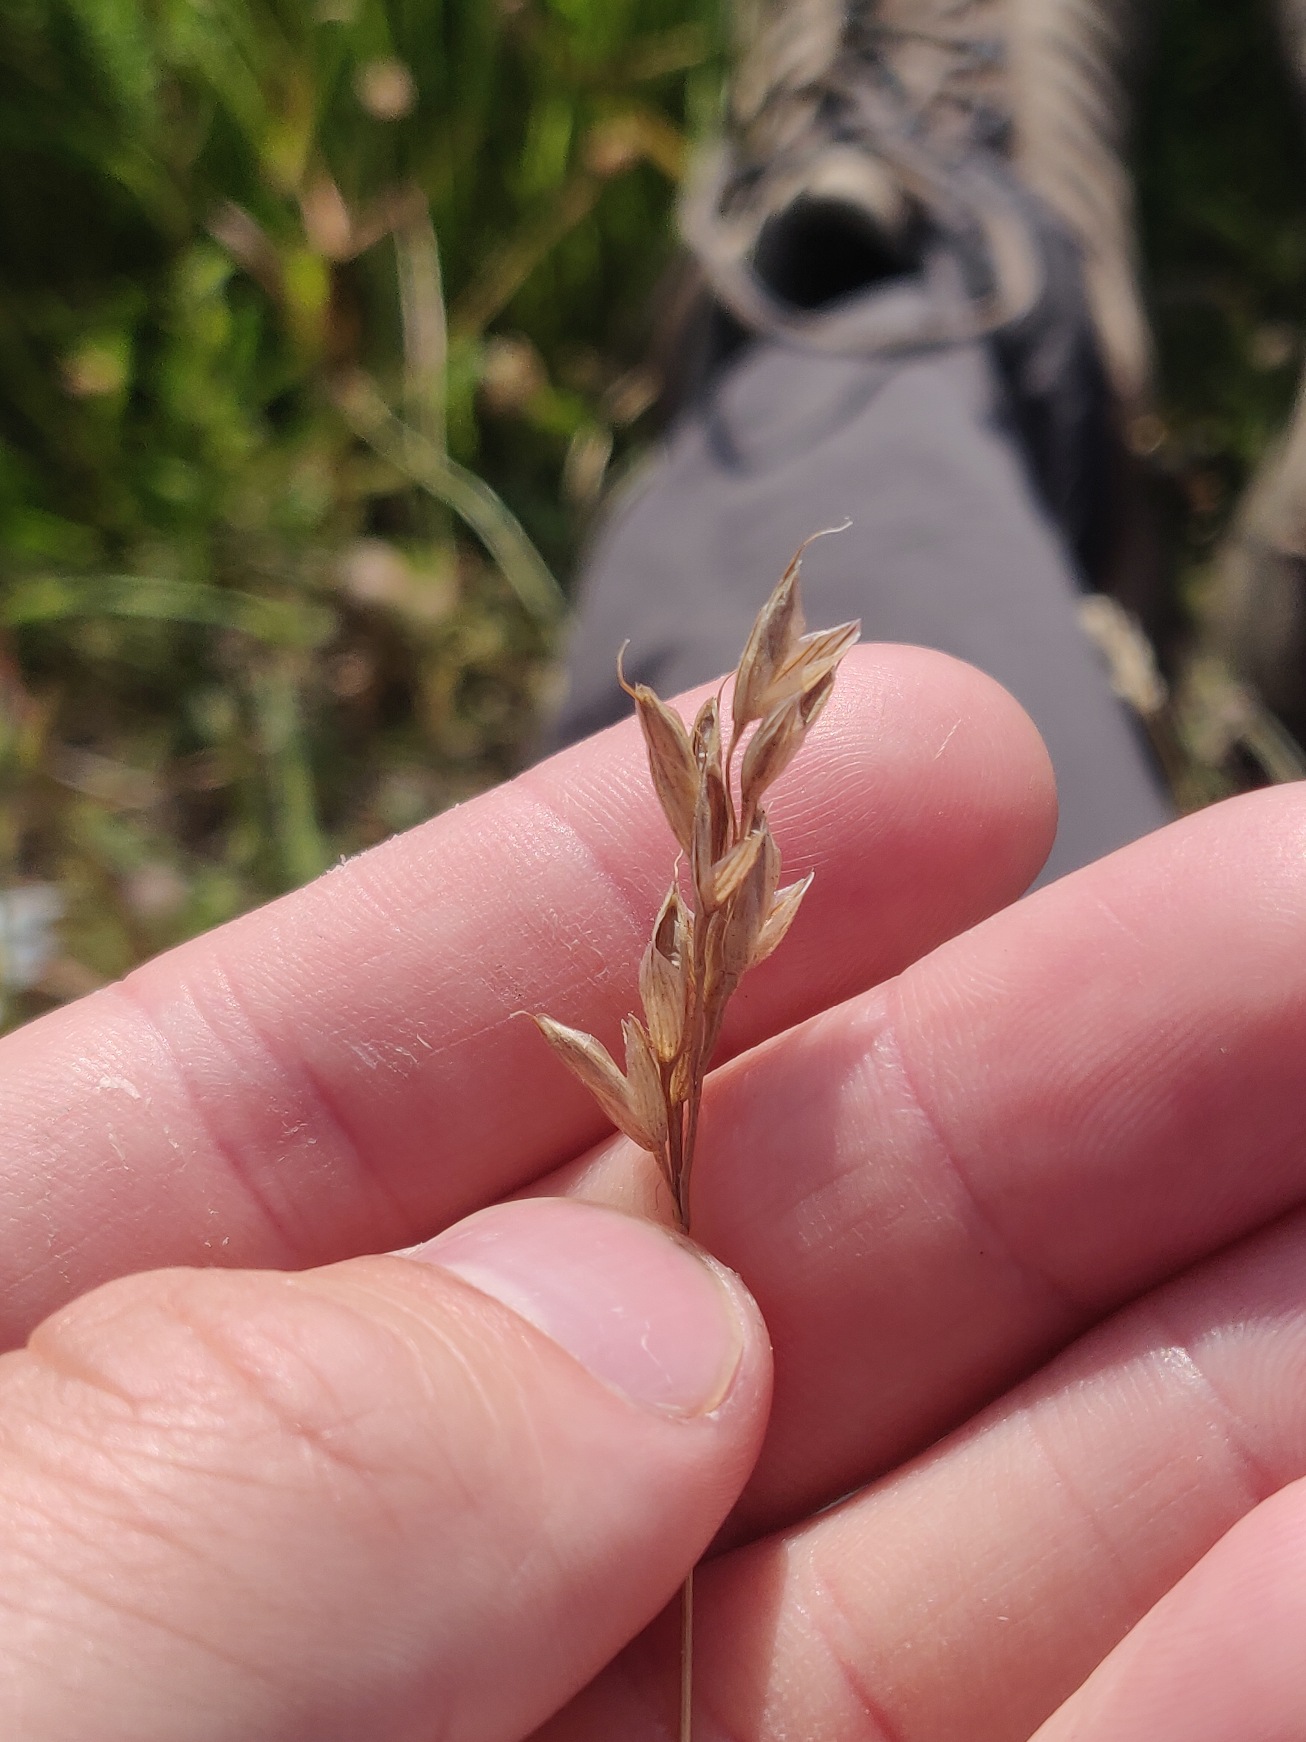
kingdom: Plantae
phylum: Tracheophyta
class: Liliopsida
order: Poales
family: Poaceae
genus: Bromus
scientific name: Bromus hordeaceus
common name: Blød hejre
